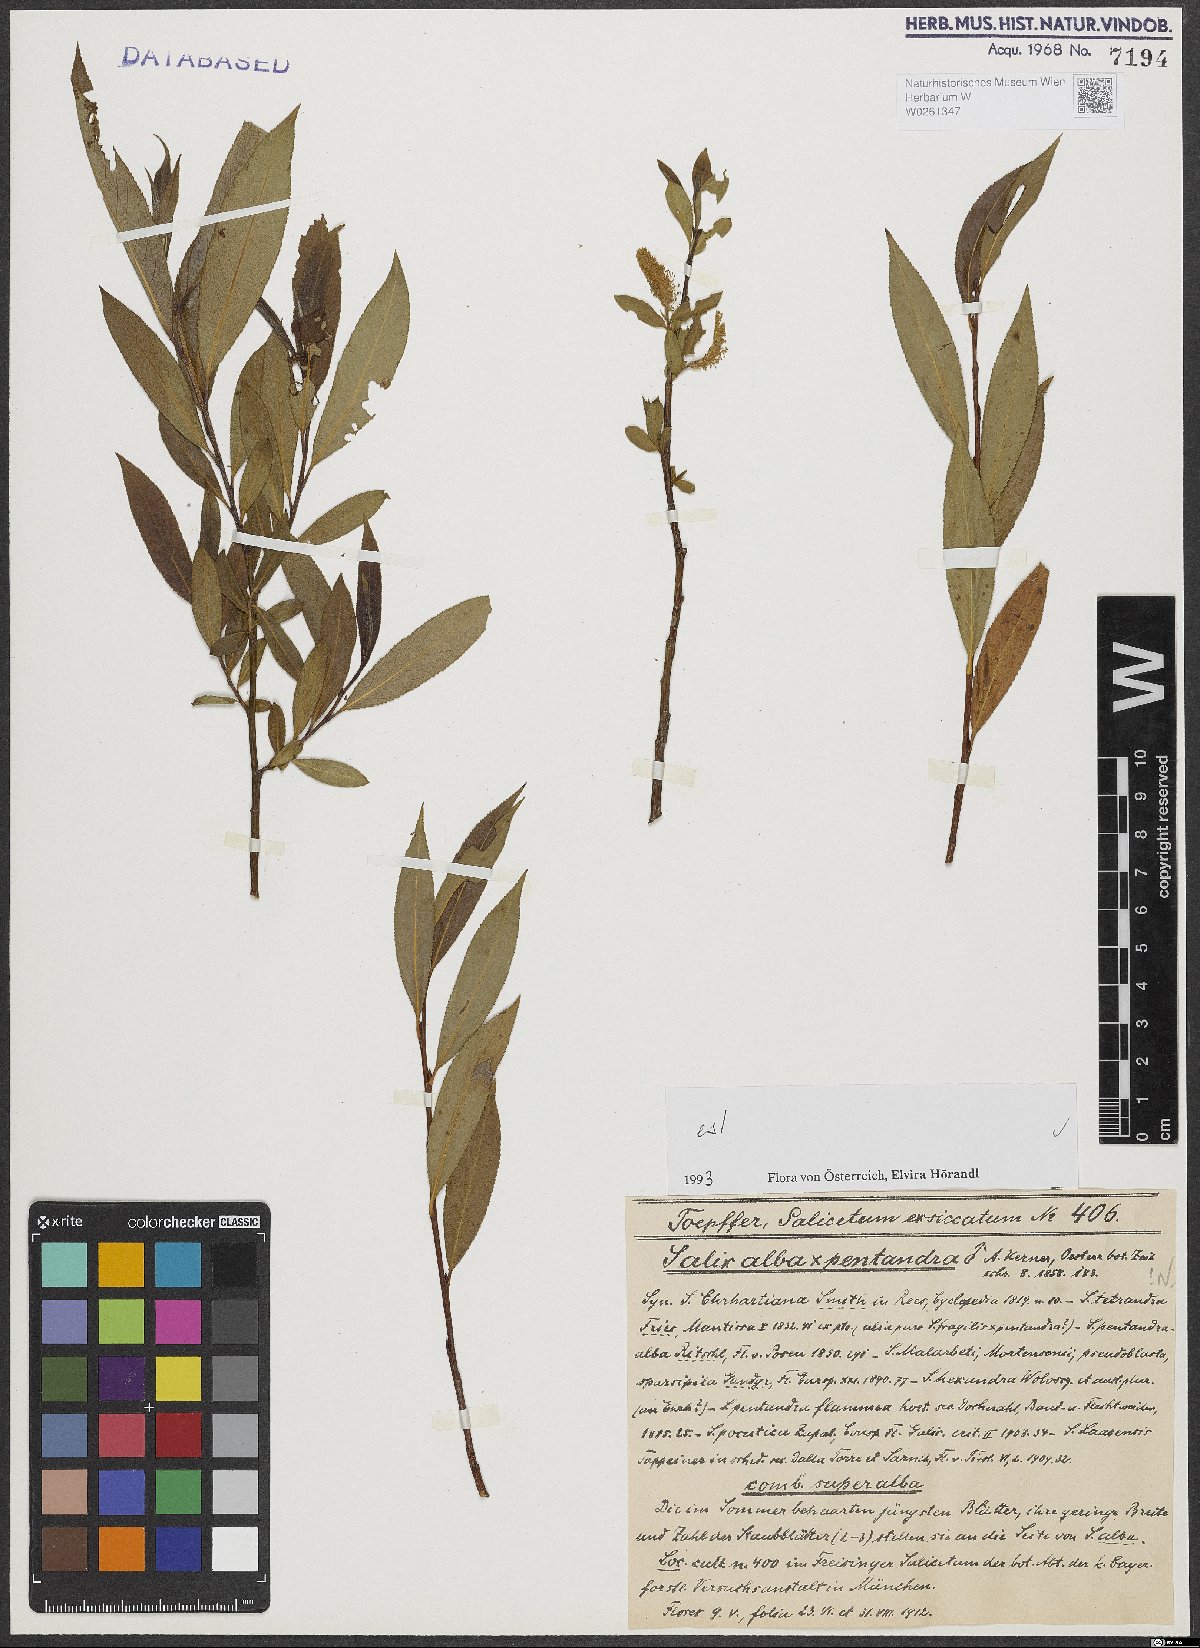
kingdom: Plantae
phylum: Tracheophyta
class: Magnoliopsida
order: Malpighiales
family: Salicaceae
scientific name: Salicaceae
